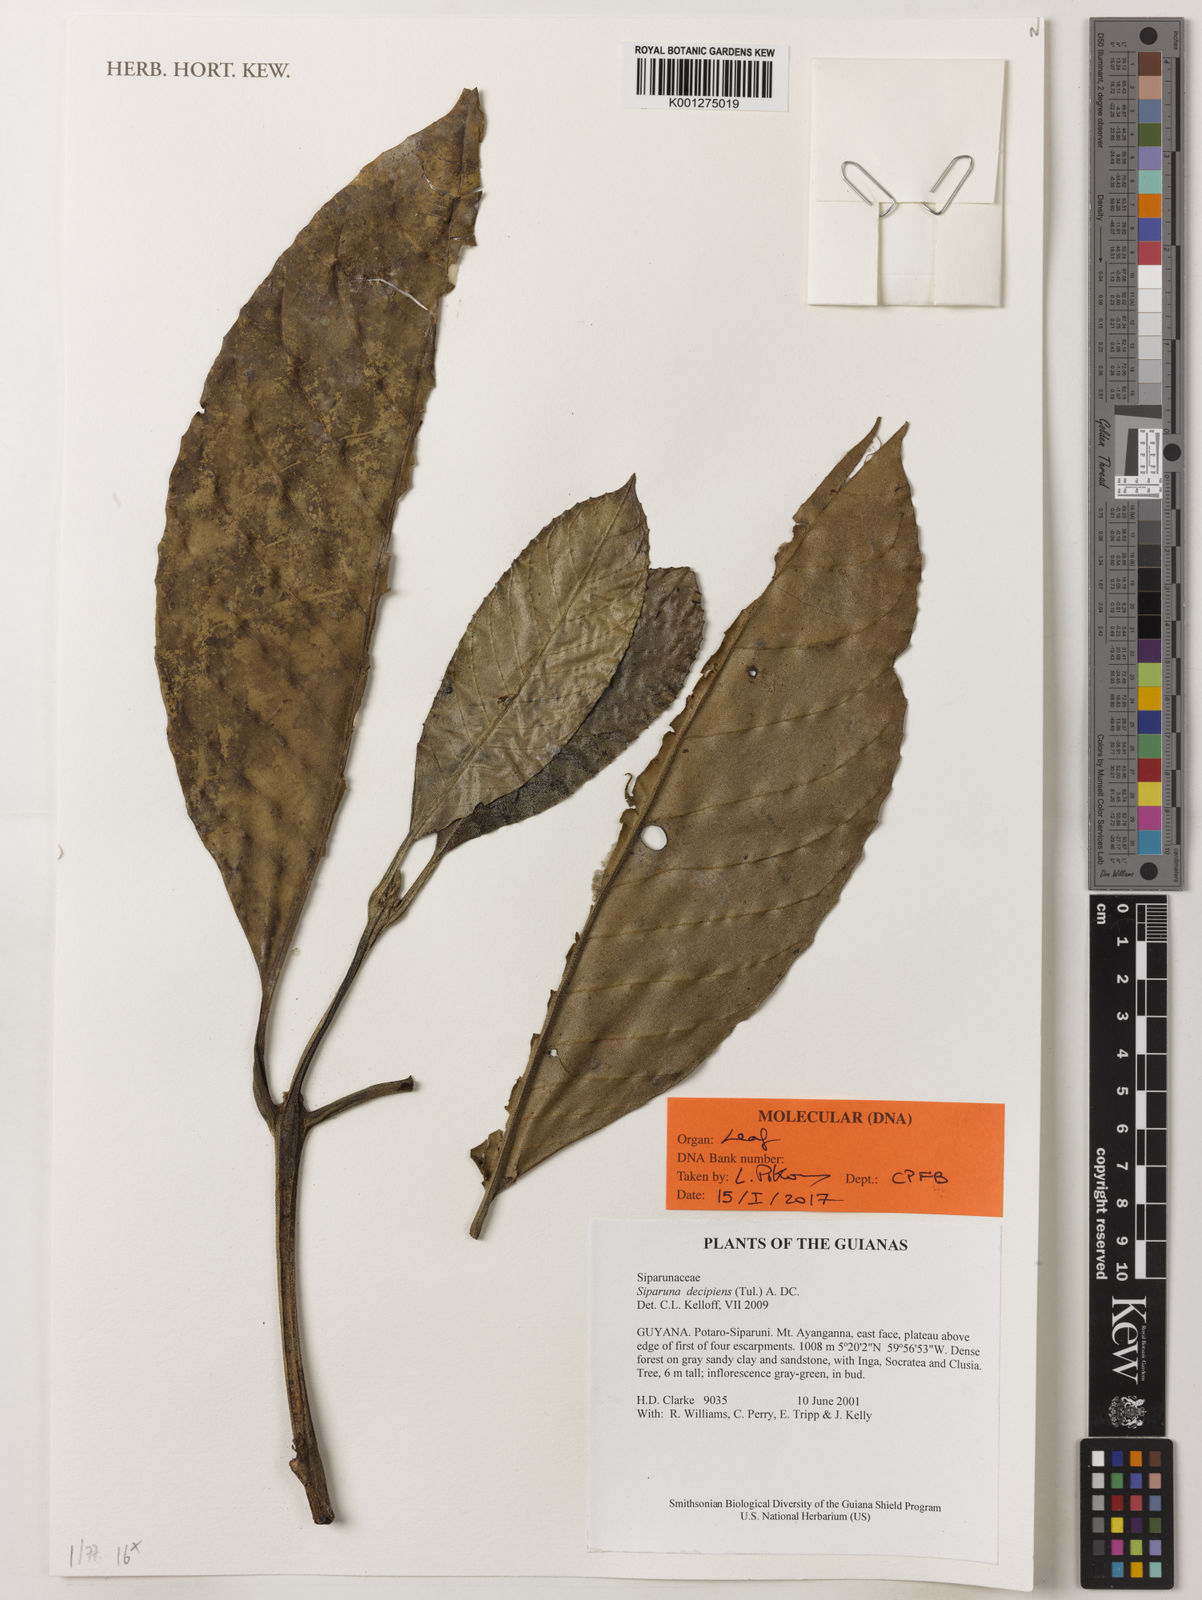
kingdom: Plantae
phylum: Tracheophyta
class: Magnoliopsida
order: Laurales
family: Siparunaceae
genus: Siparuna
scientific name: Siparuna decipiens
